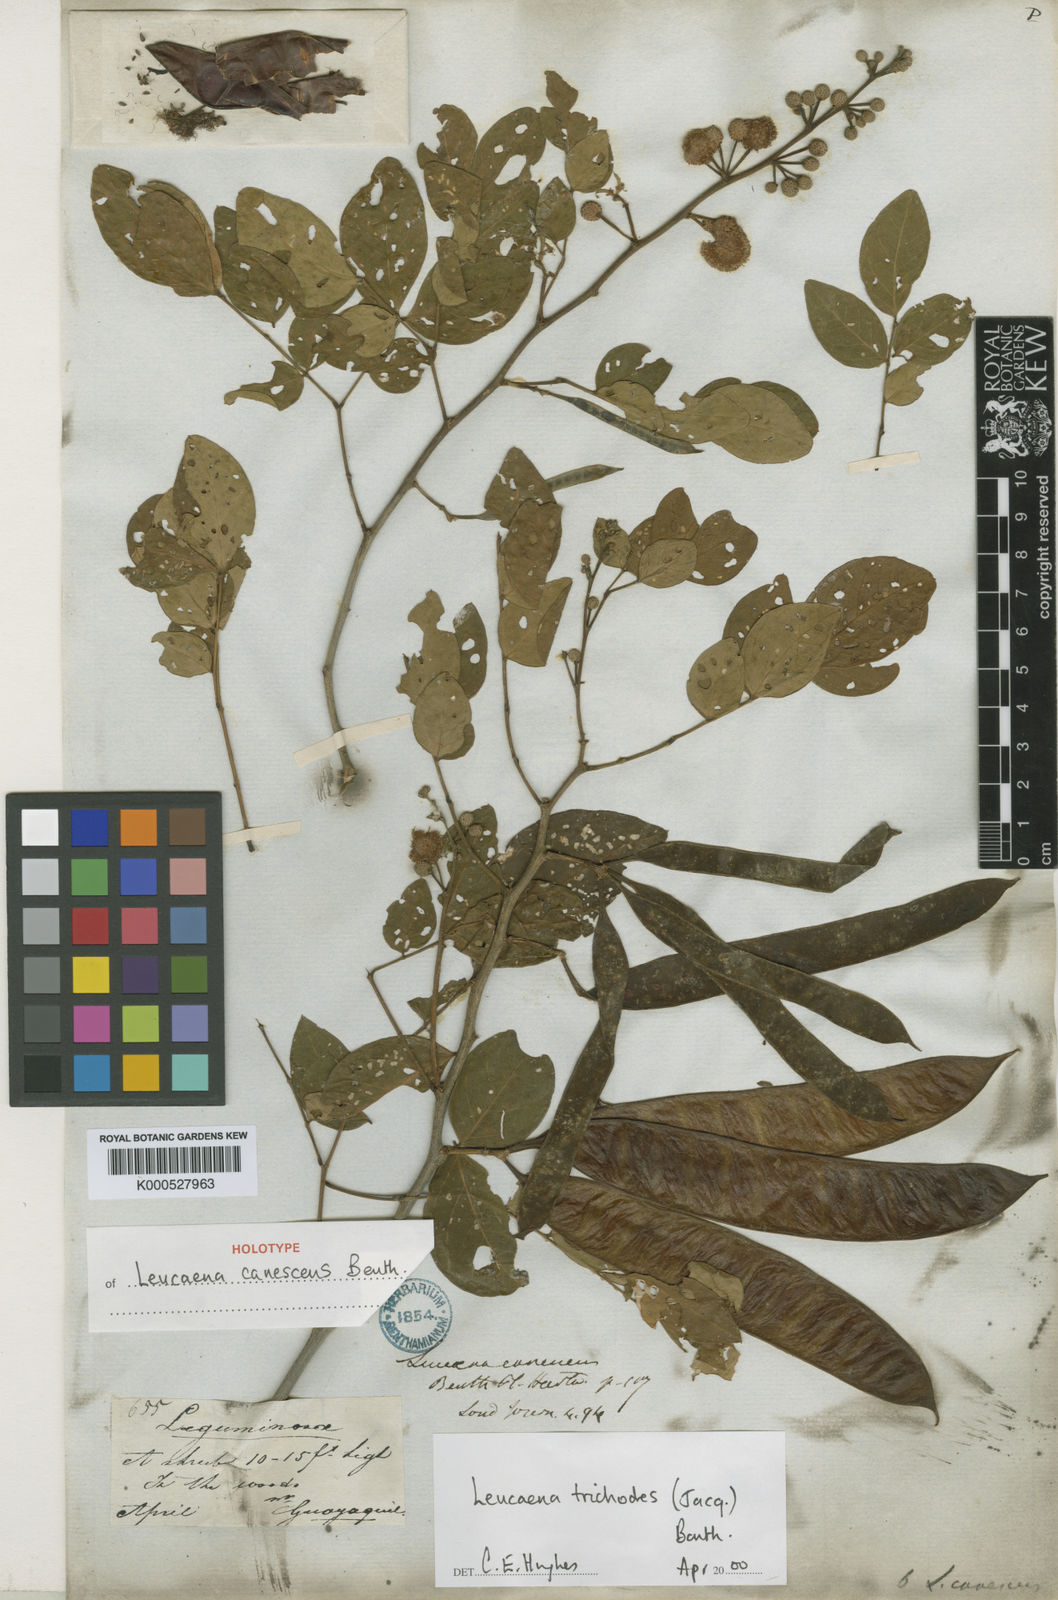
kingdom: Plantae
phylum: Tracheophyta
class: Magnoliopsida
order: Fabales
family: Fabaceae
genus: Leucaena
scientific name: Leucaena trichodes
